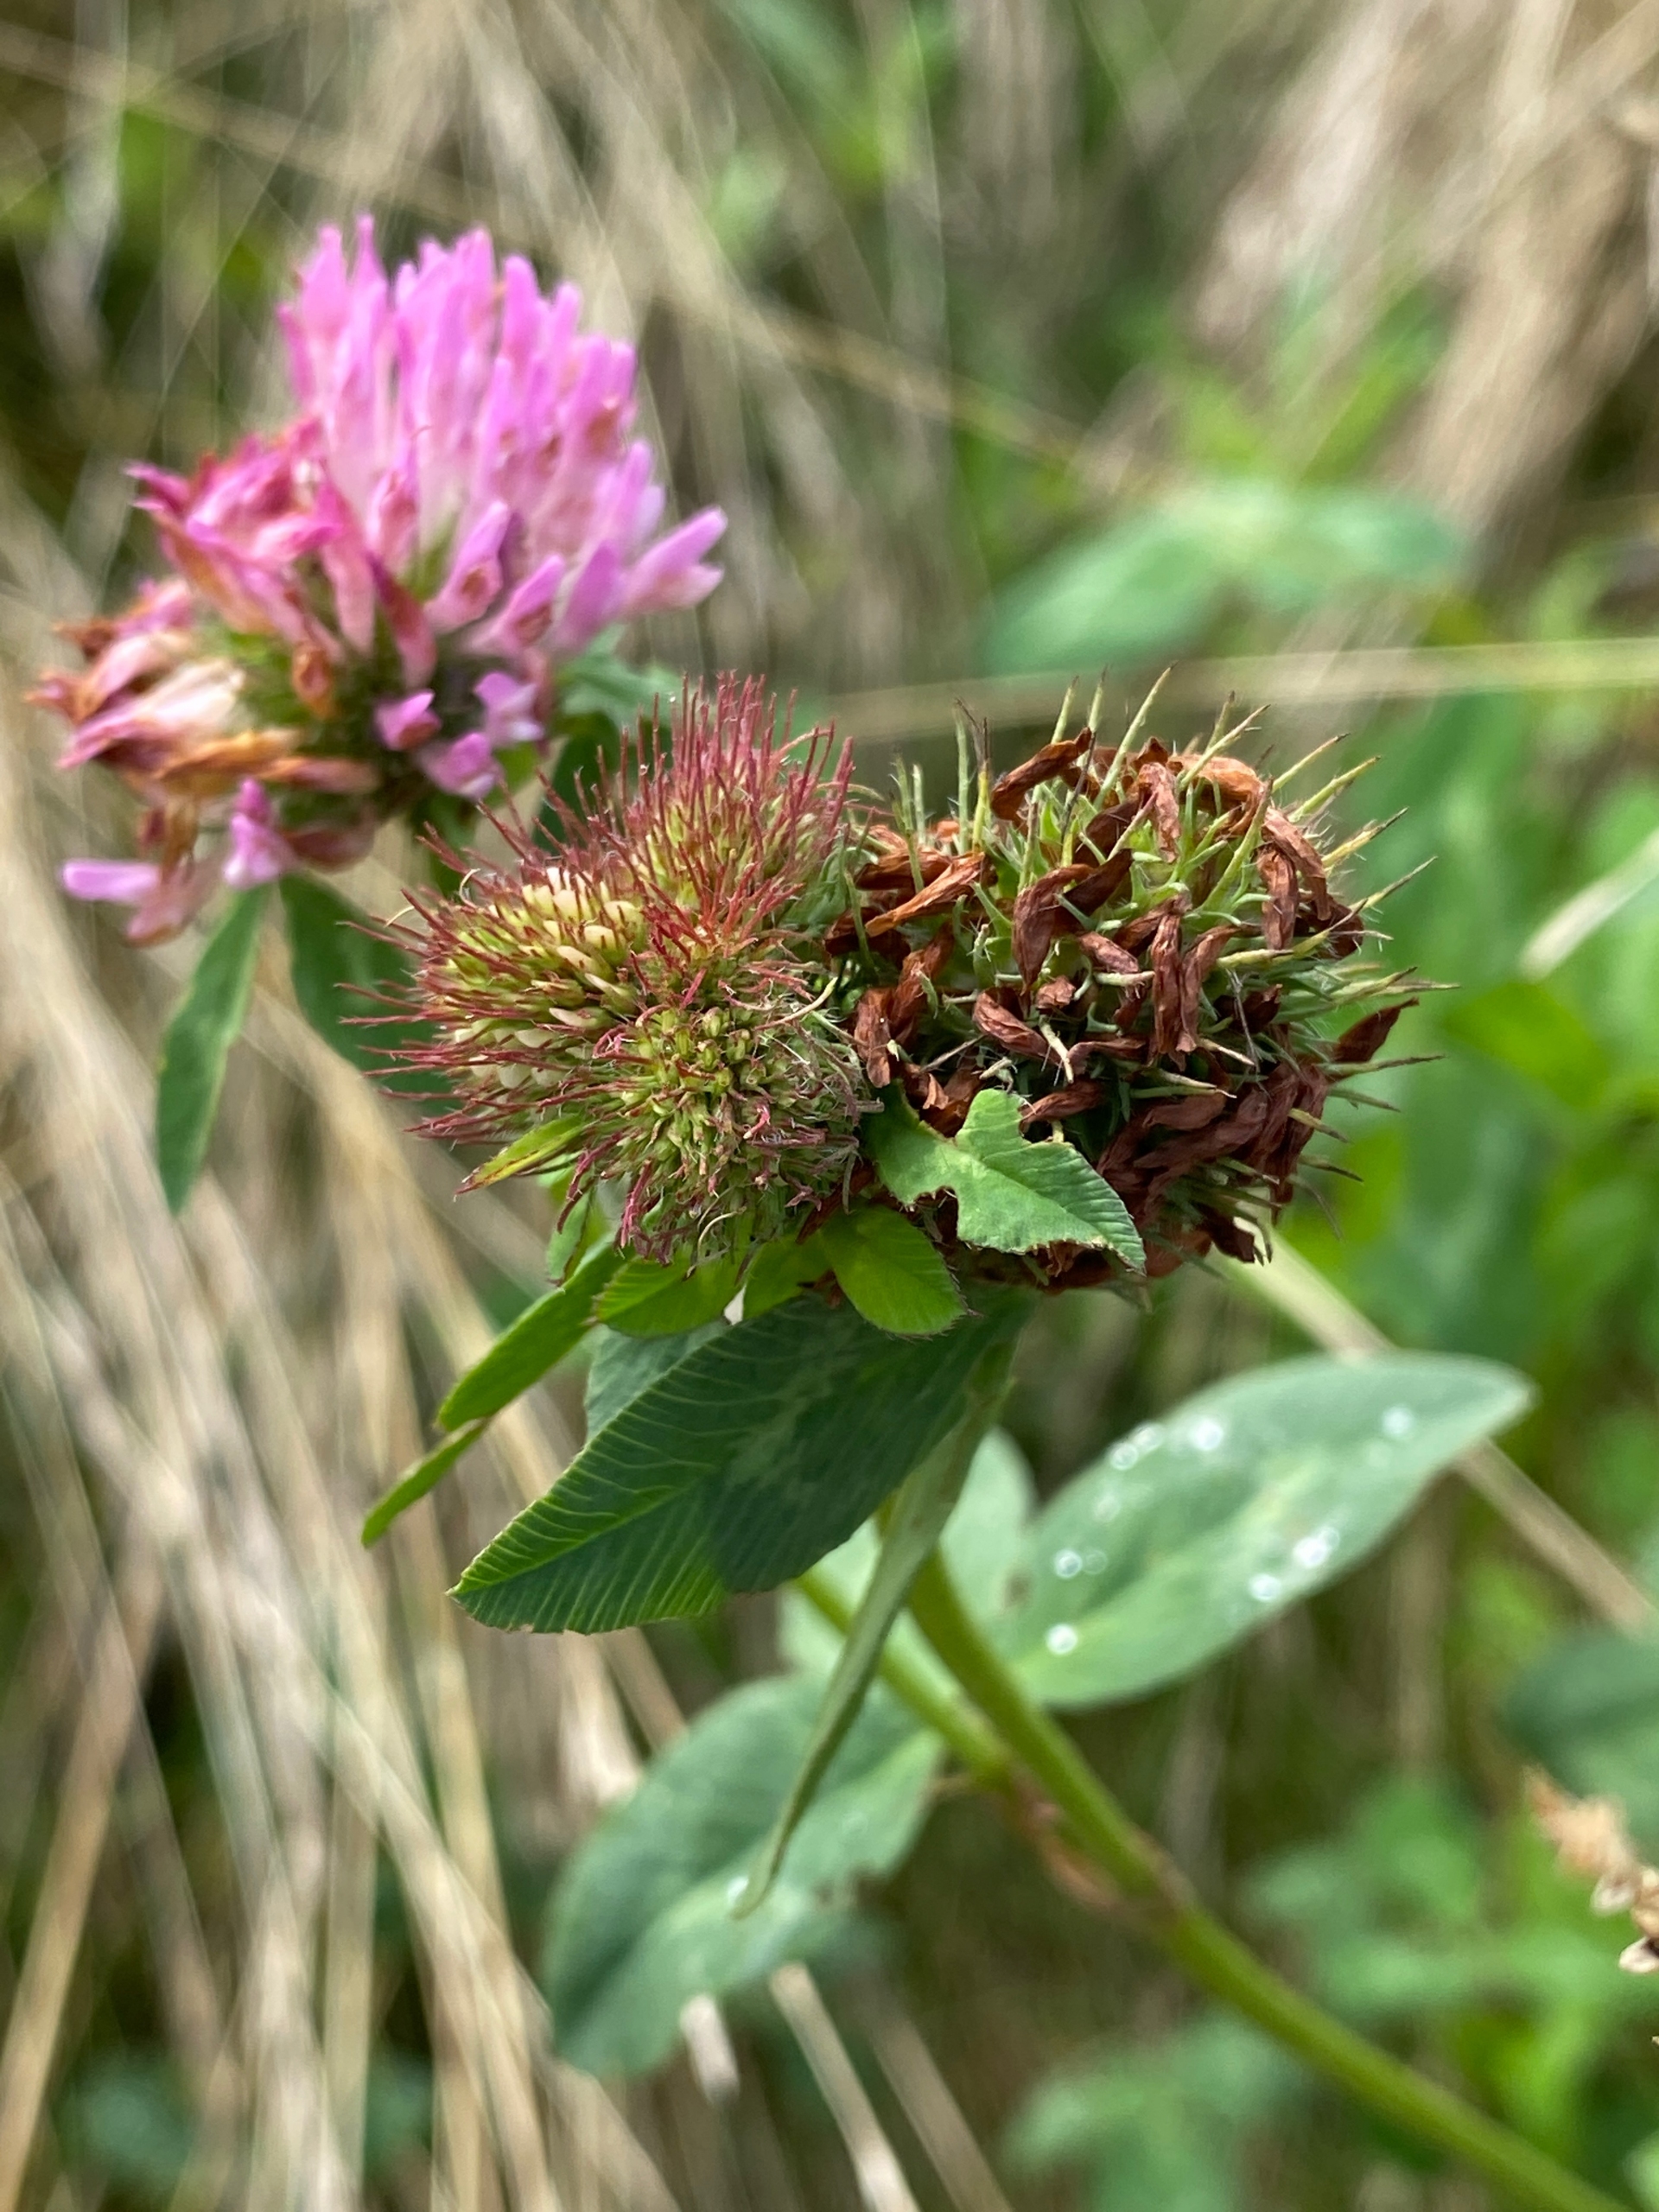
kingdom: Plantae
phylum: Tracheophyta
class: Magnoliopsida
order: Fabales
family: Fabaceae
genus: Trifolium
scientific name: Trifolium pratense
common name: Rød-kløver
